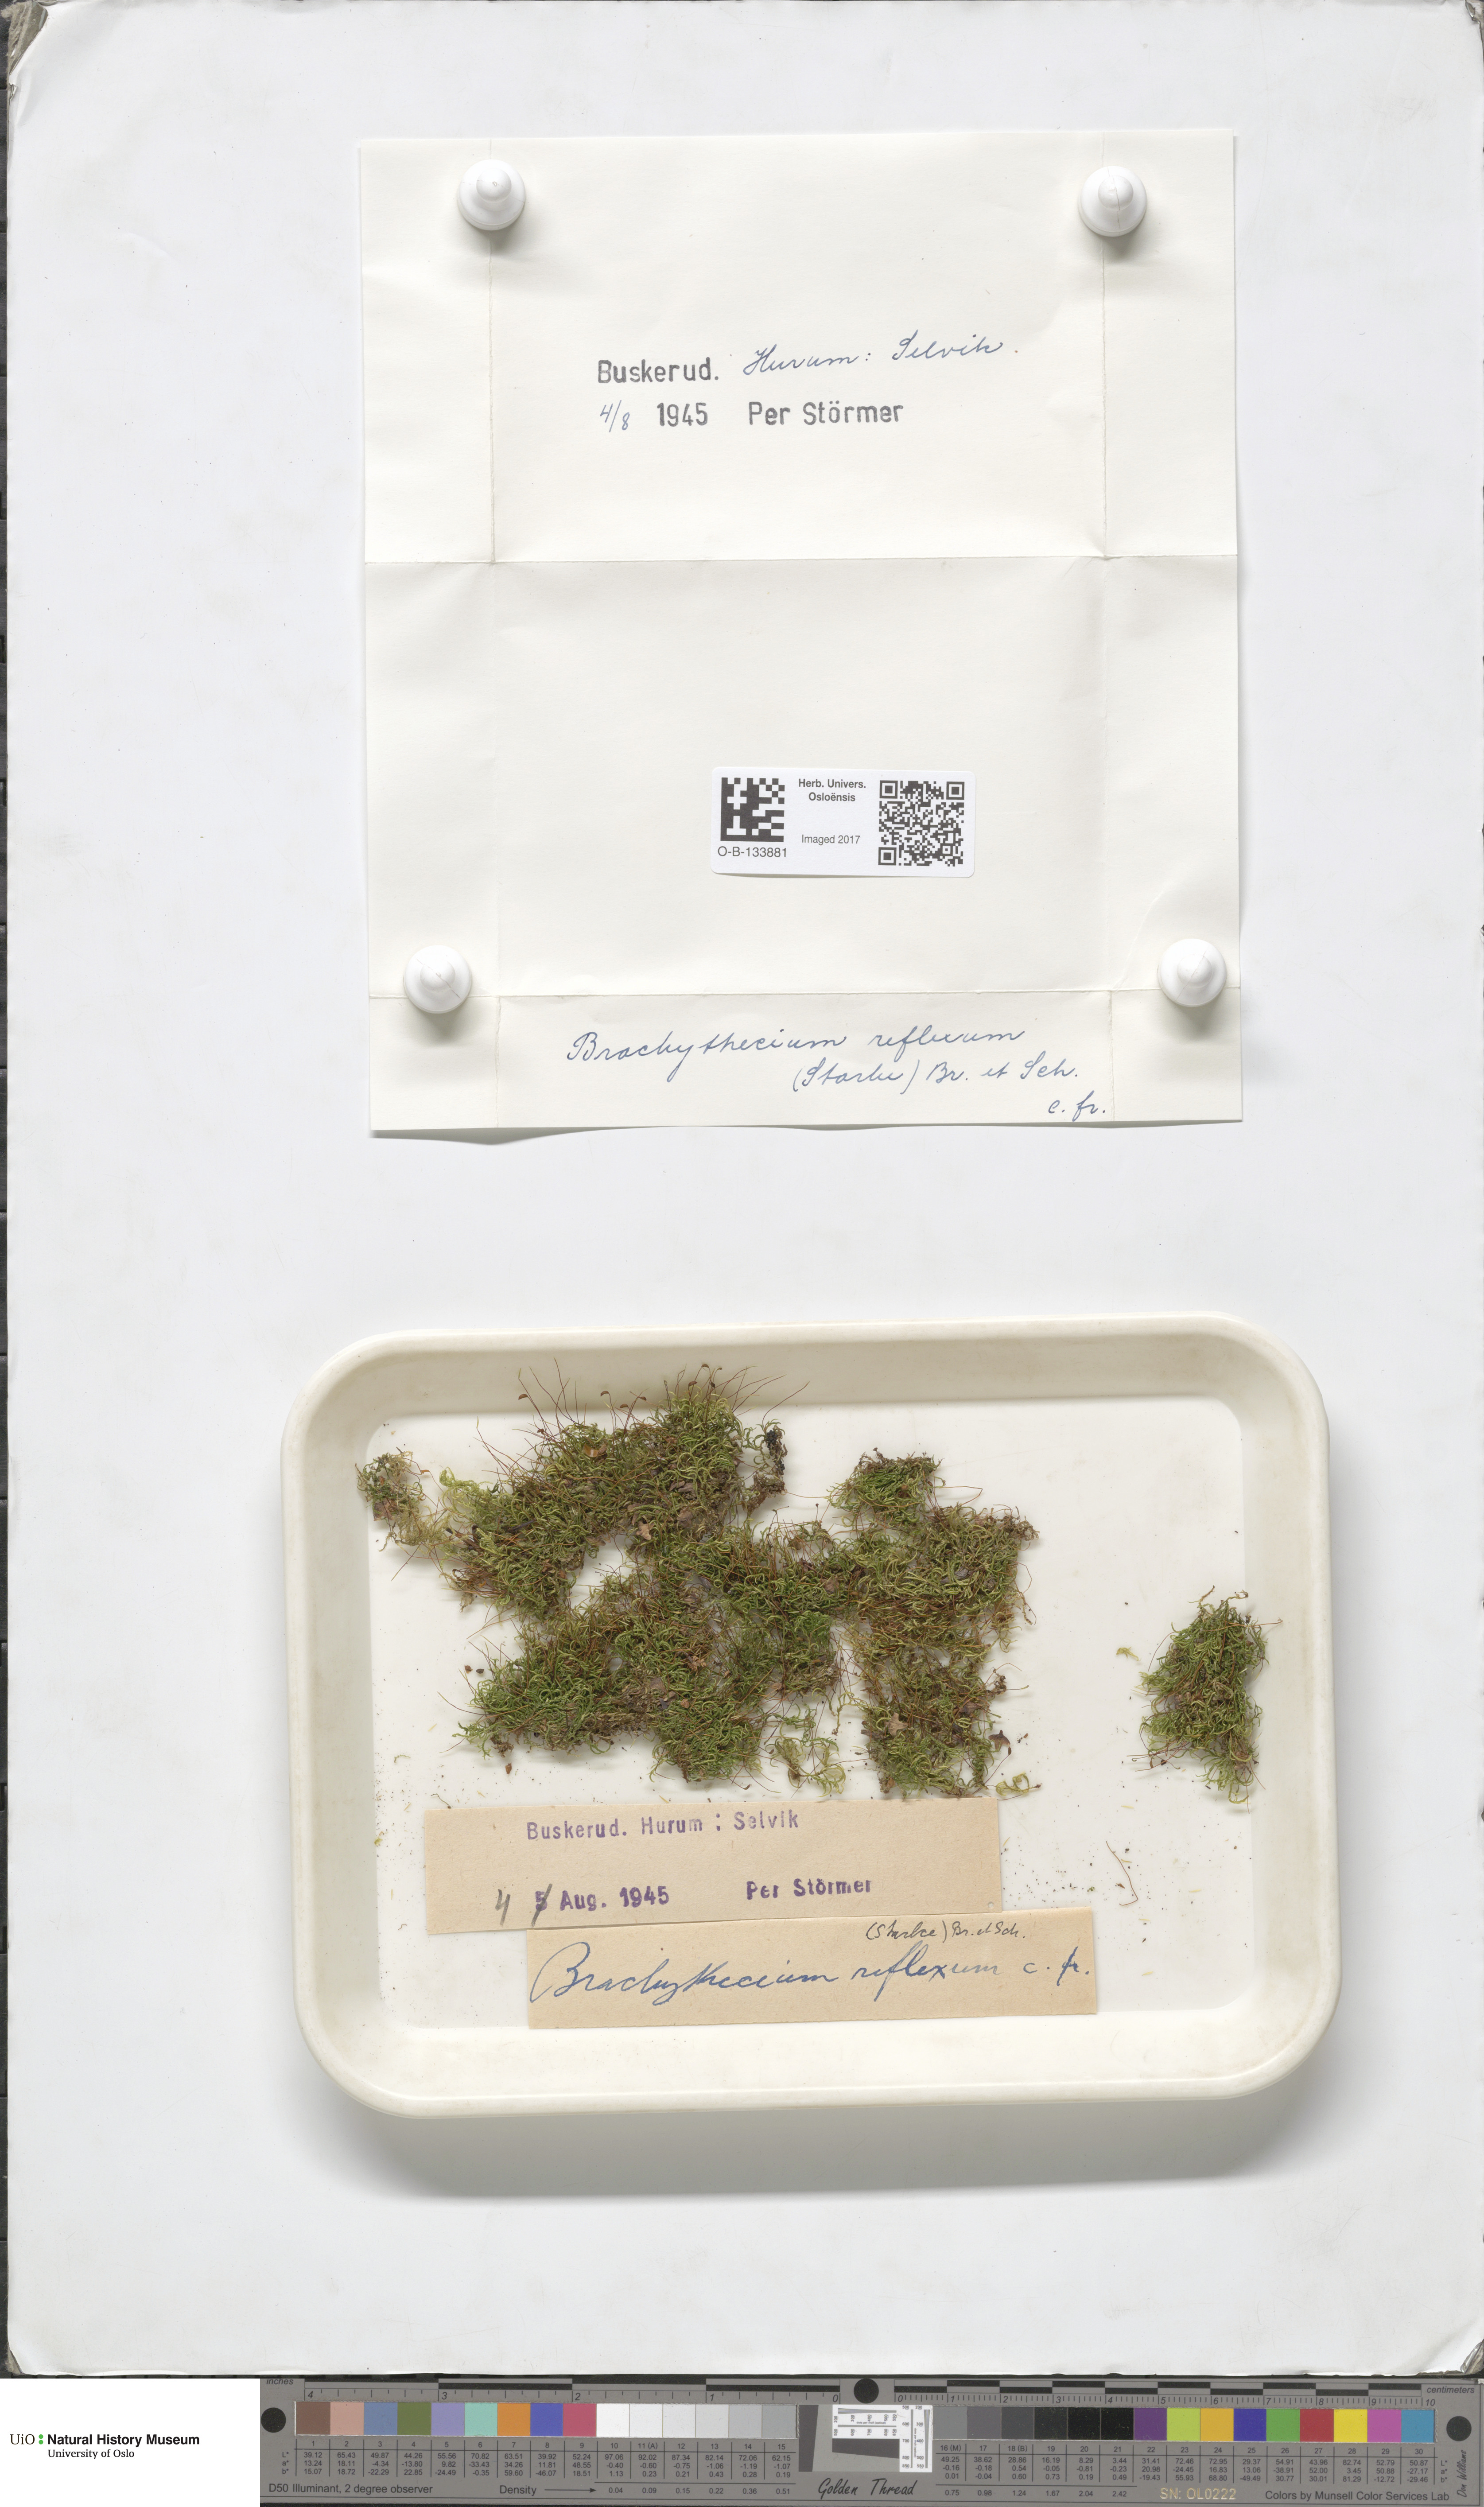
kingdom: Plantae
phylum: Bryophyta
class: Bryopsida
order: Hypnales
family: Brachytheciaceae
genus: Sciuro-hypnum
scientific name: Sciuro-hypnum reflexum
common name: Reflexed feather-moss
